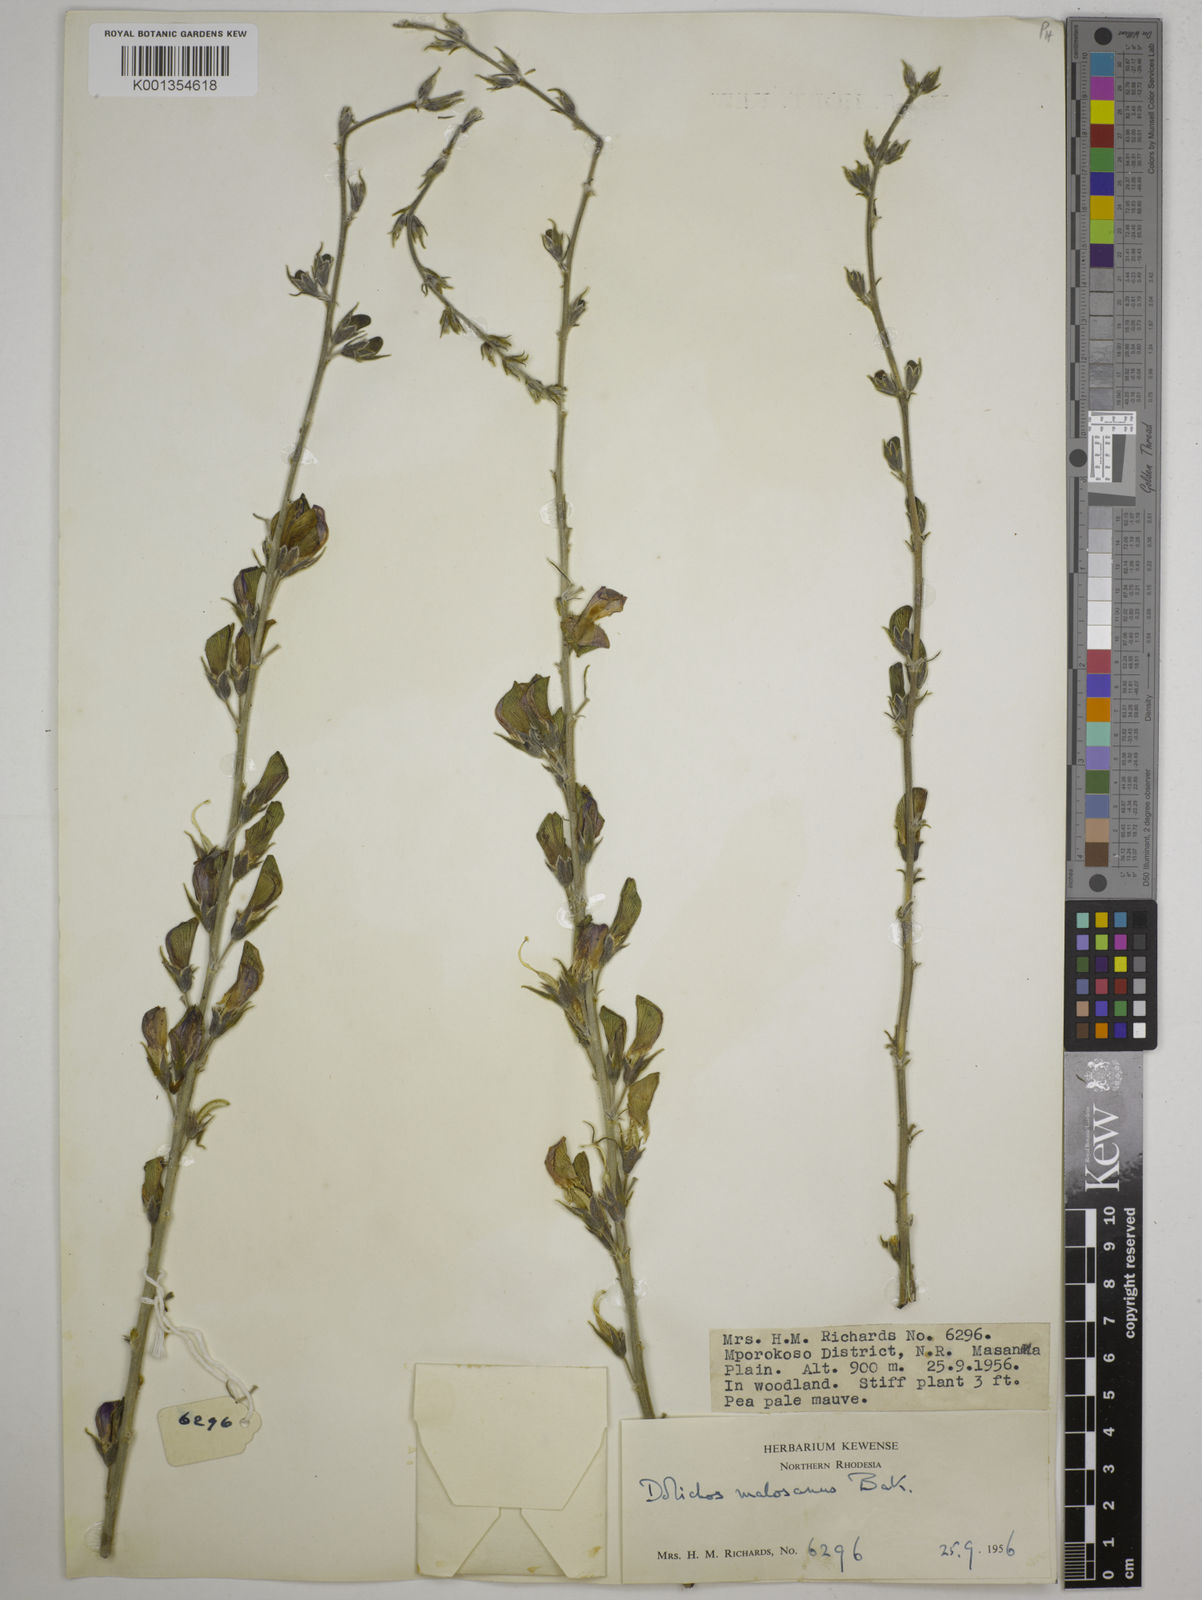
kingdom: Plantae
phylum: Tracheophyta
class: Magnoliopsida
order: Fabales
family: Fabaceae
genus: Dolichos
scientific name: Dolichos kilimandscharicus
